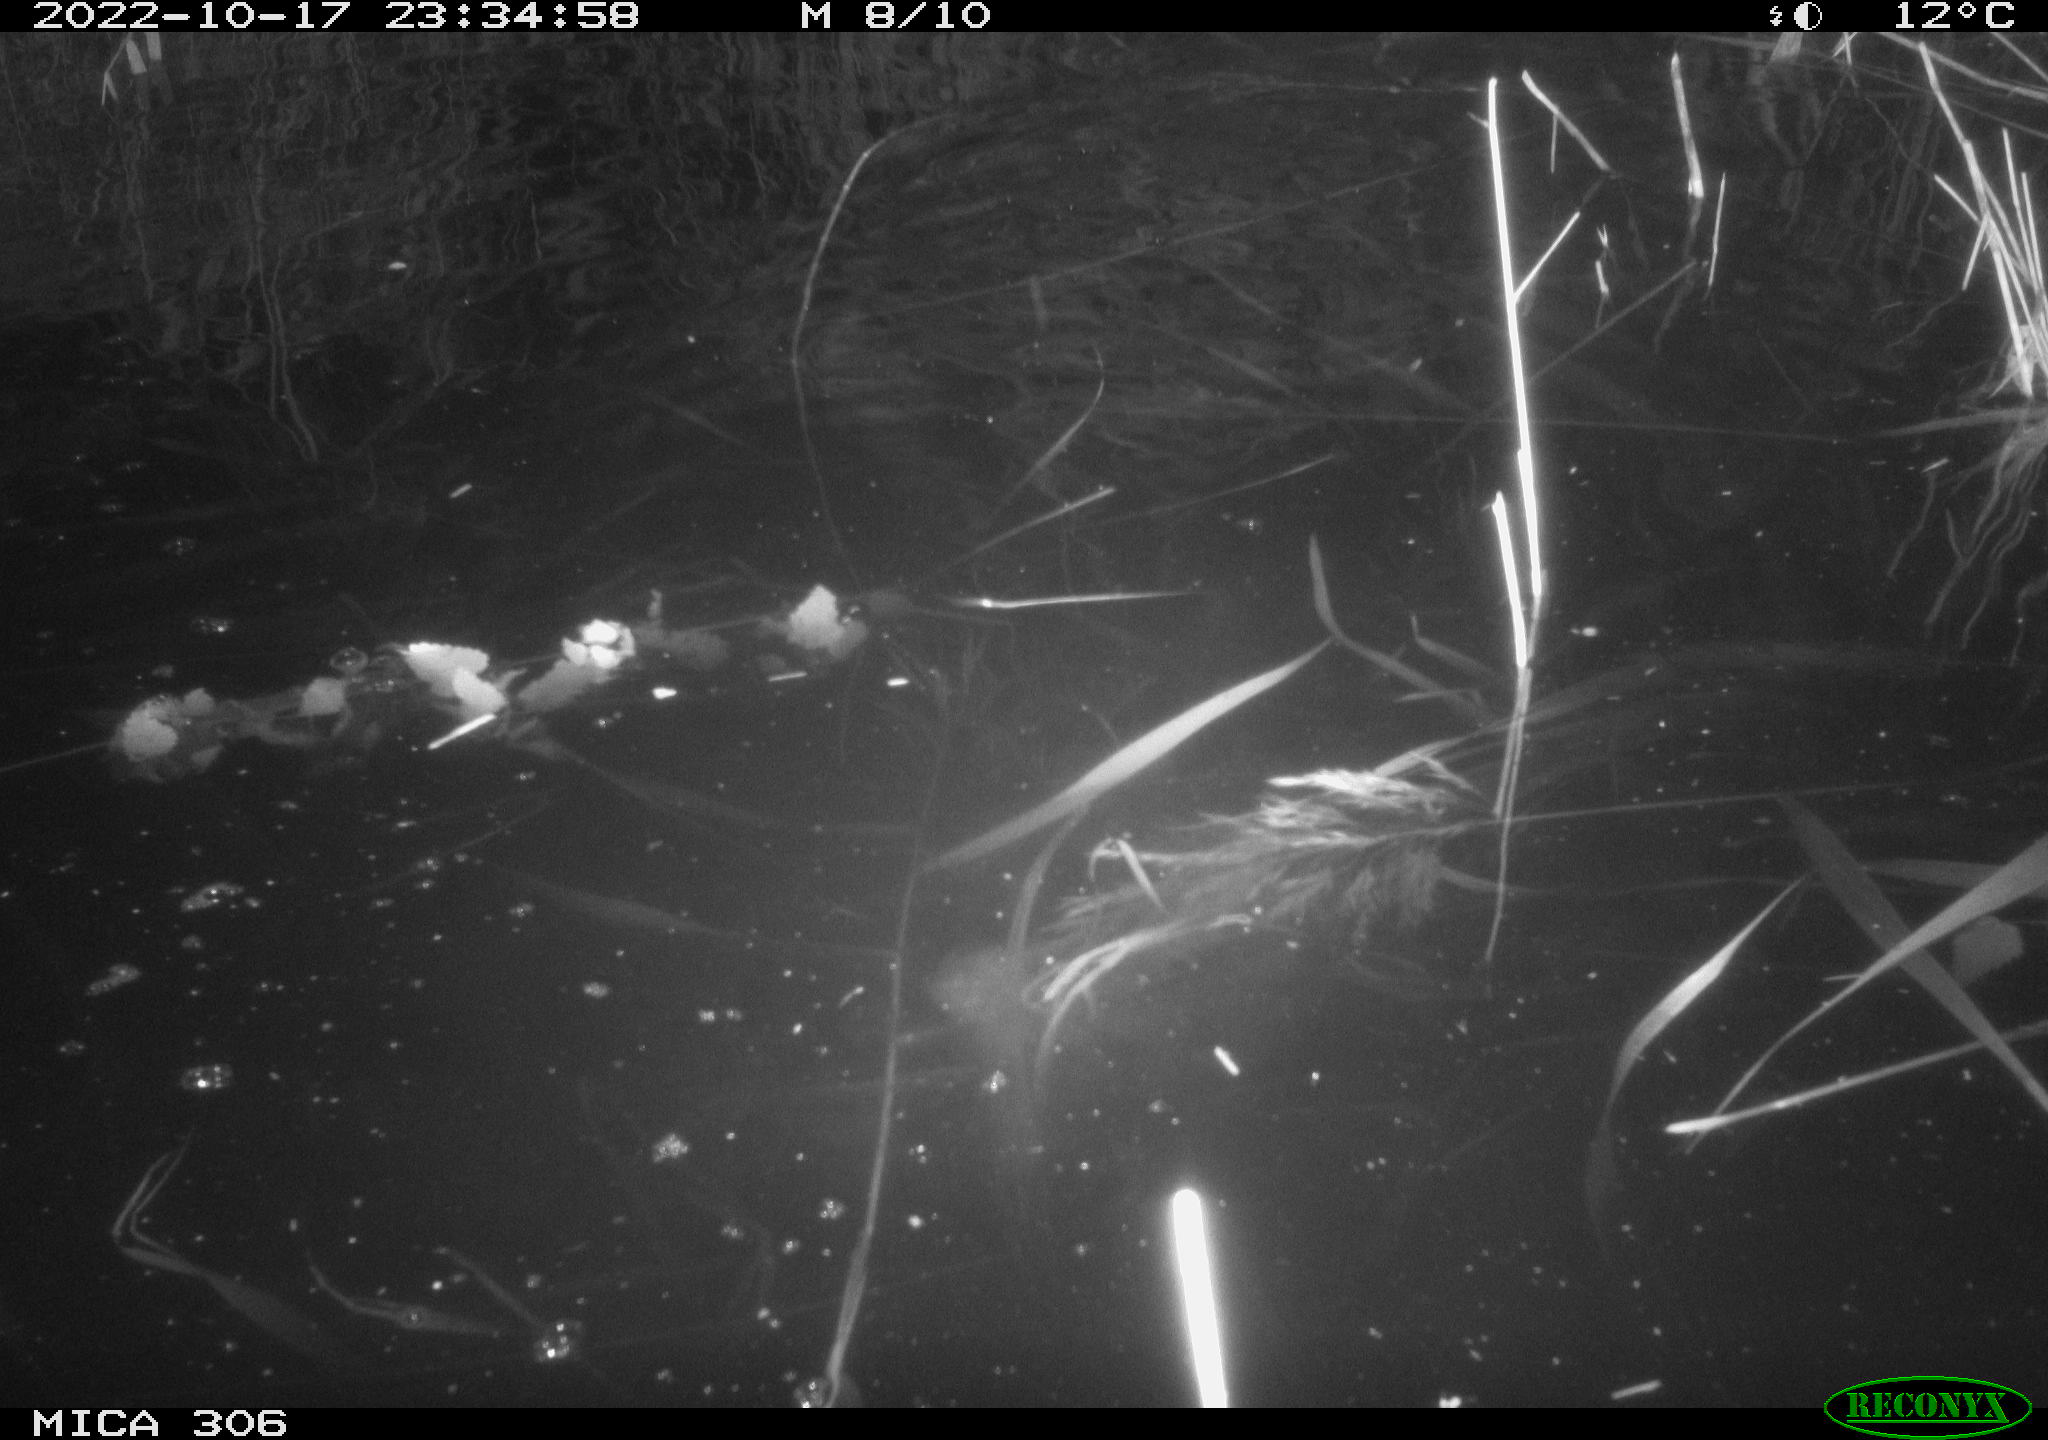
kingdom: Animalia
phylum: Chordata
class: Mammalia
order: Rodentia
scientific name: Rodentia
